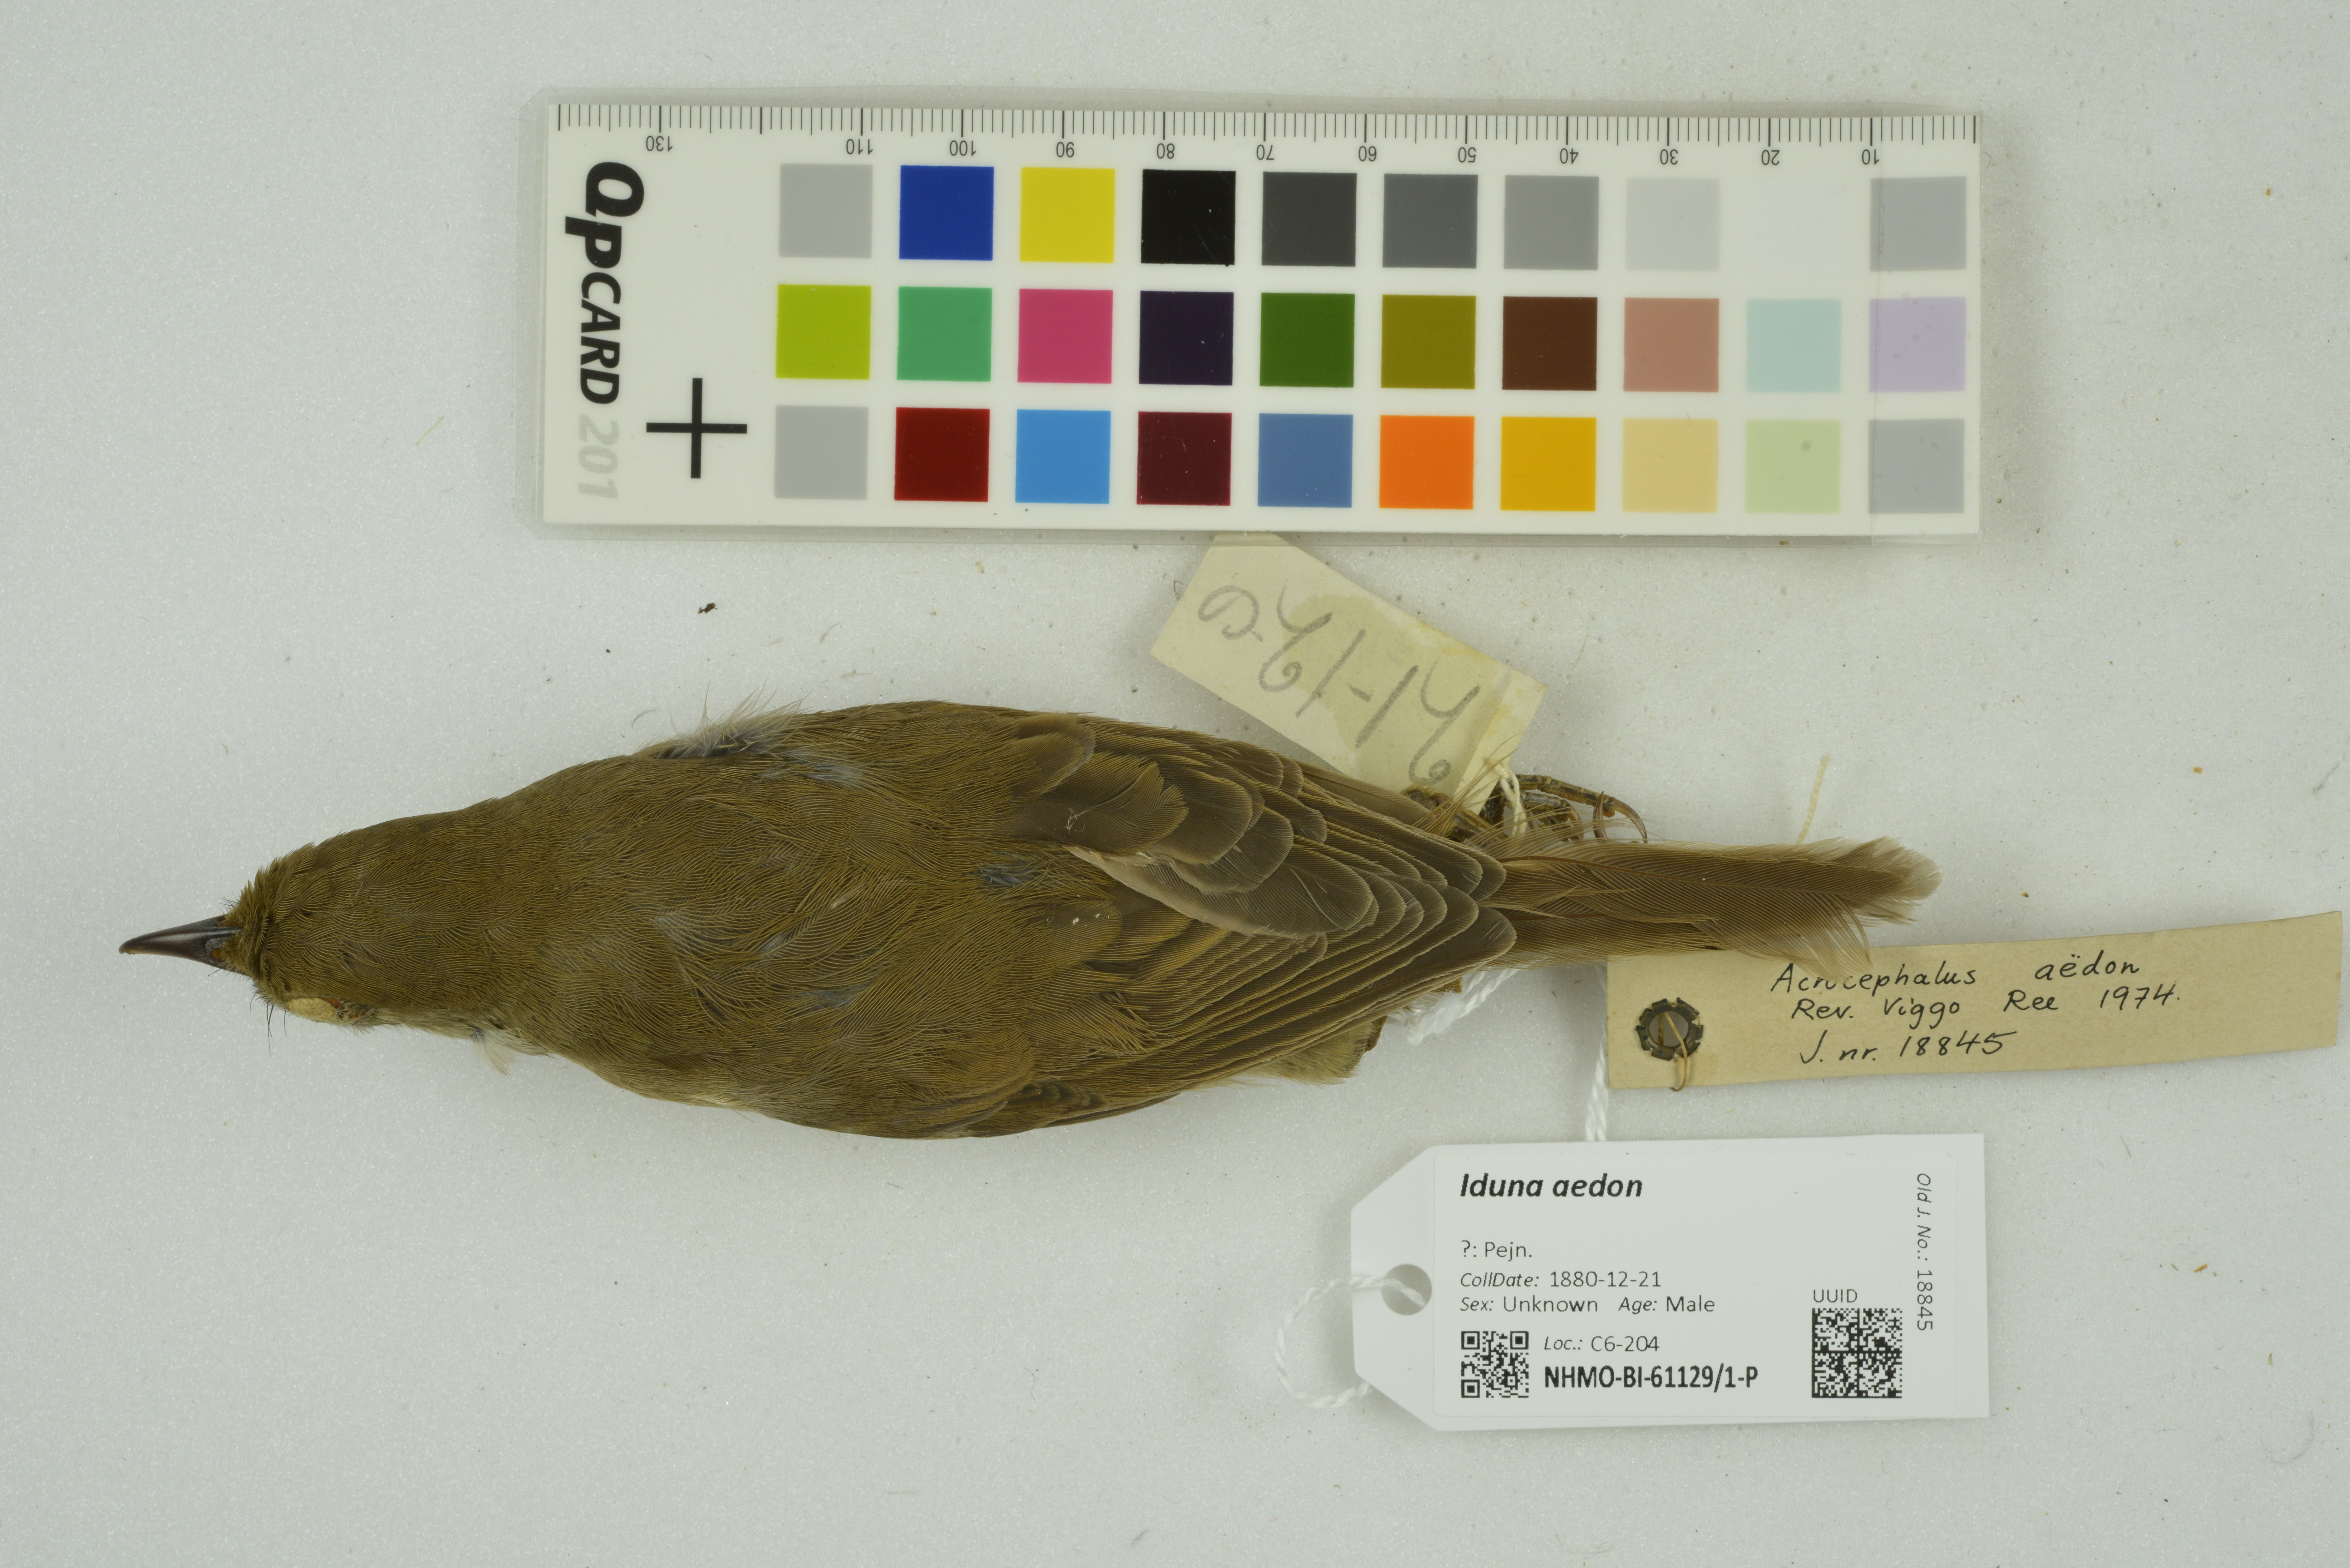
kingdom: Animalia
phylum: Chordata
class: Aves
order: Passeriformes
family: Acrocephalidae
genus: Iduna
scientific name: Iduna aedon
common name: Thick-billed warbler
